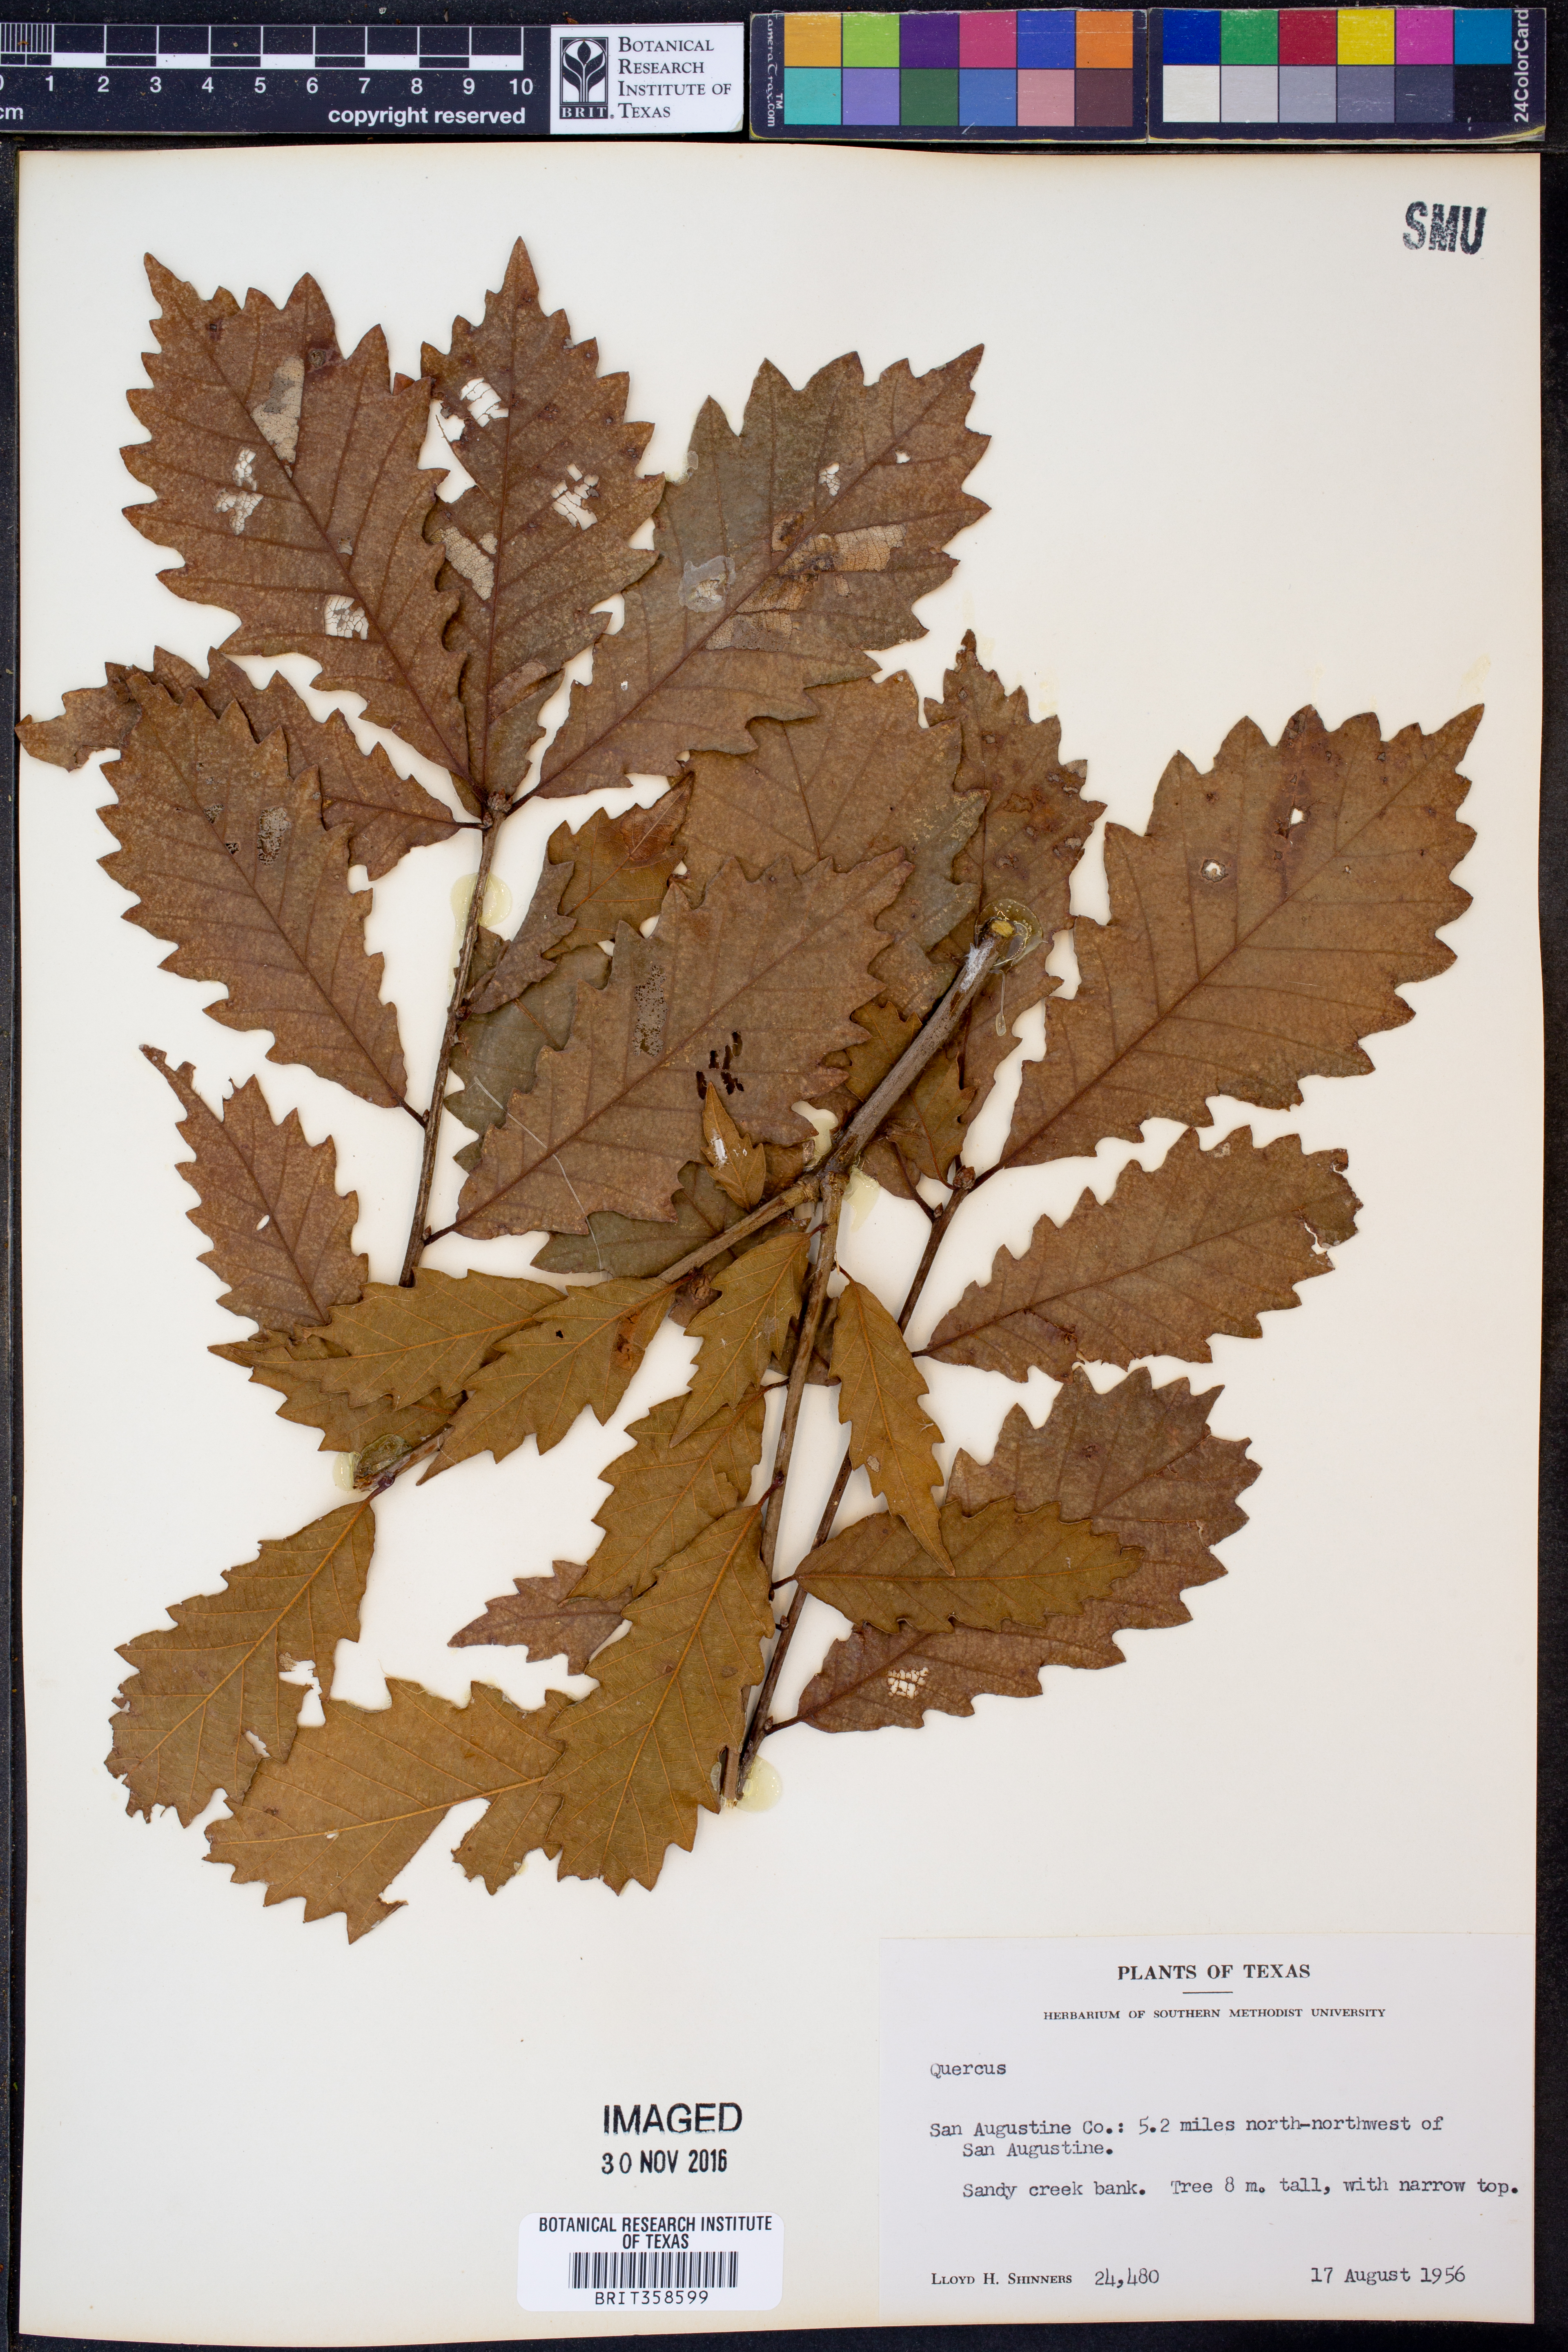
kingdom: Plantae
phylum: Tracheophyta
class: Magnoliopsida
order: Fagales
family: Fagaceae
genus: Quercus
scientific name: Quercus
